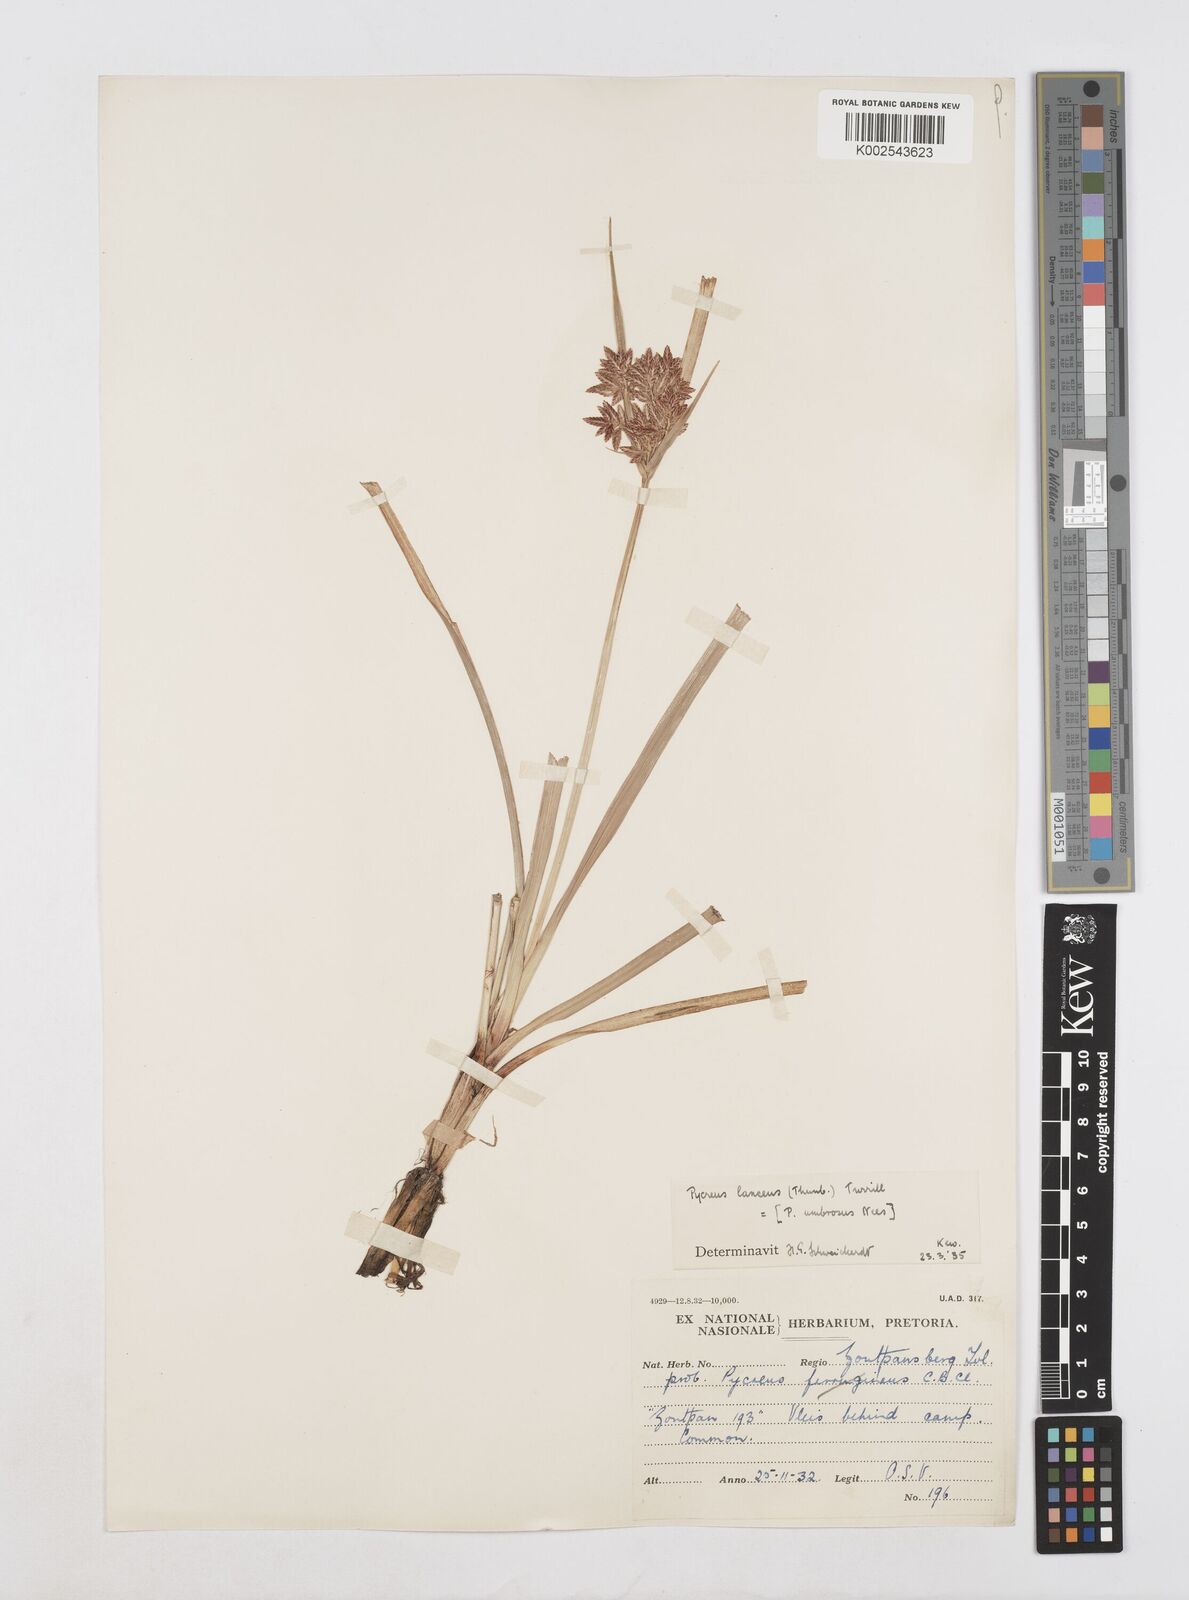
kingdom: Plantae
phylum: Tracheophyta
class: Liliopsida
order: Poales
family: Cyperaceae
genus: Cyperus
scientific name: Cyperus nitidus
